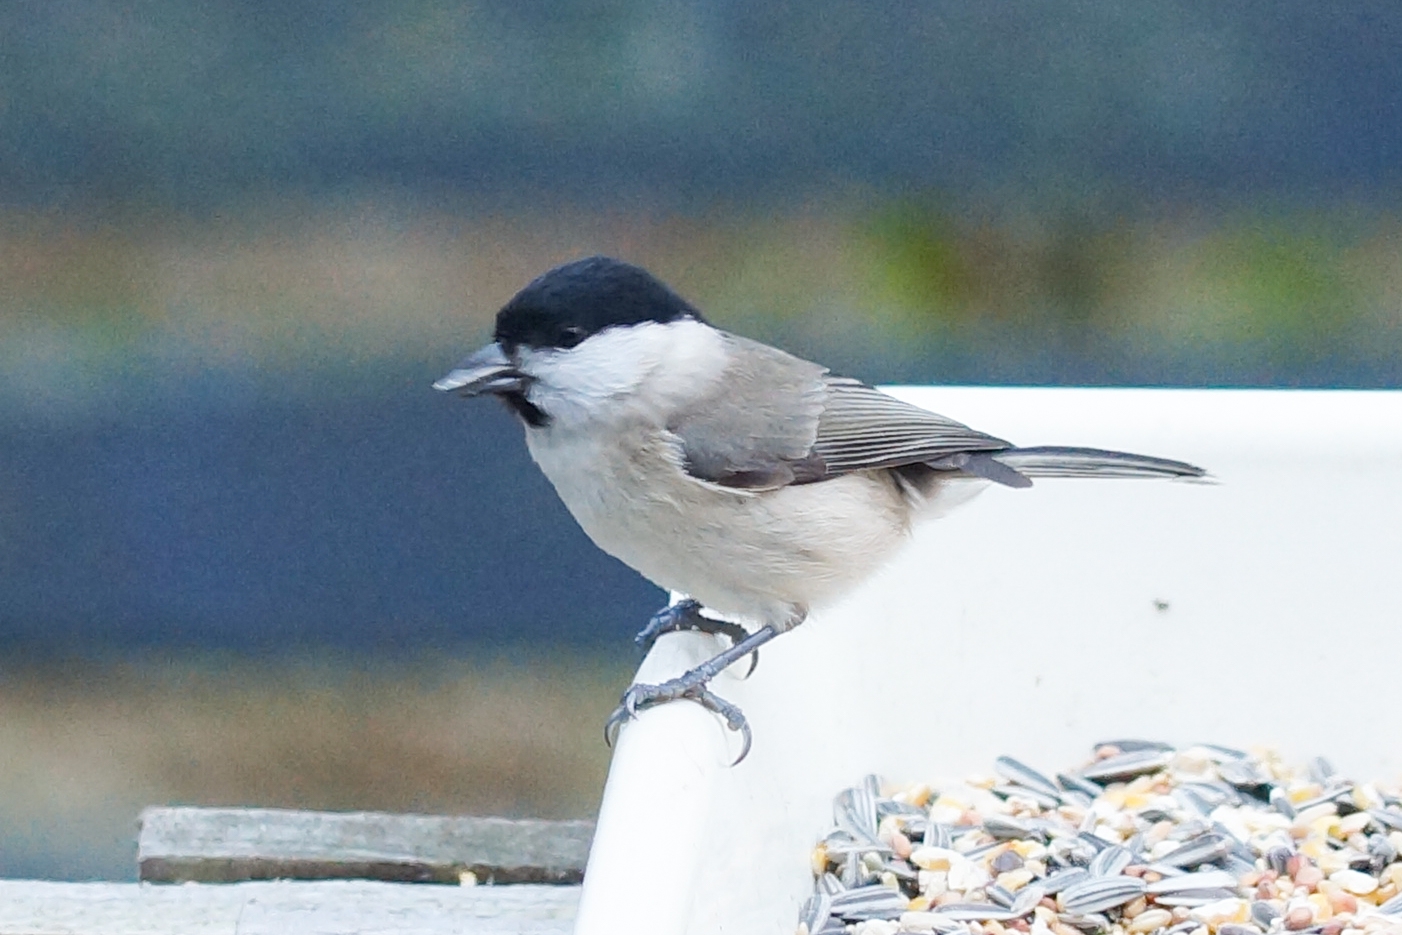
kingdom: Animalia
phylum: Chordata
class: Aves
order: Passeriformes
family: Paridae
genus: Poecile
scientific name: Poecile palustris
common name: Sumpmejse
